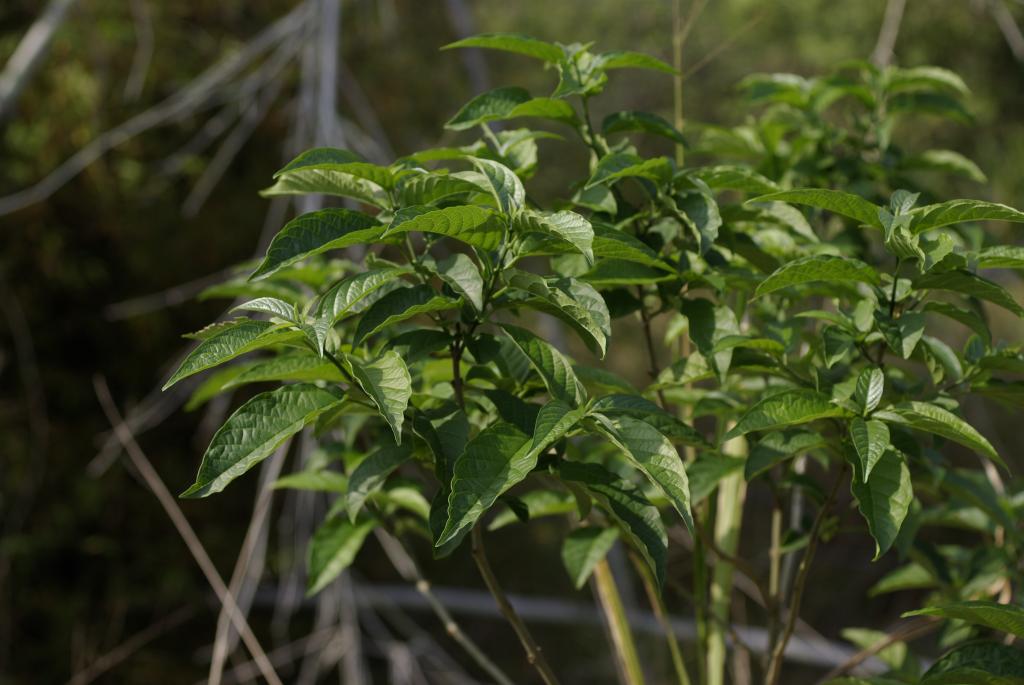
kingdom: Plantae
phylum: Tracheophyta
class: Magnoliopsida
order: Lamiales
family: Lamiaceae
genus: Clerodendrum
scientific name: Clerodendrum cyrtophyllum
